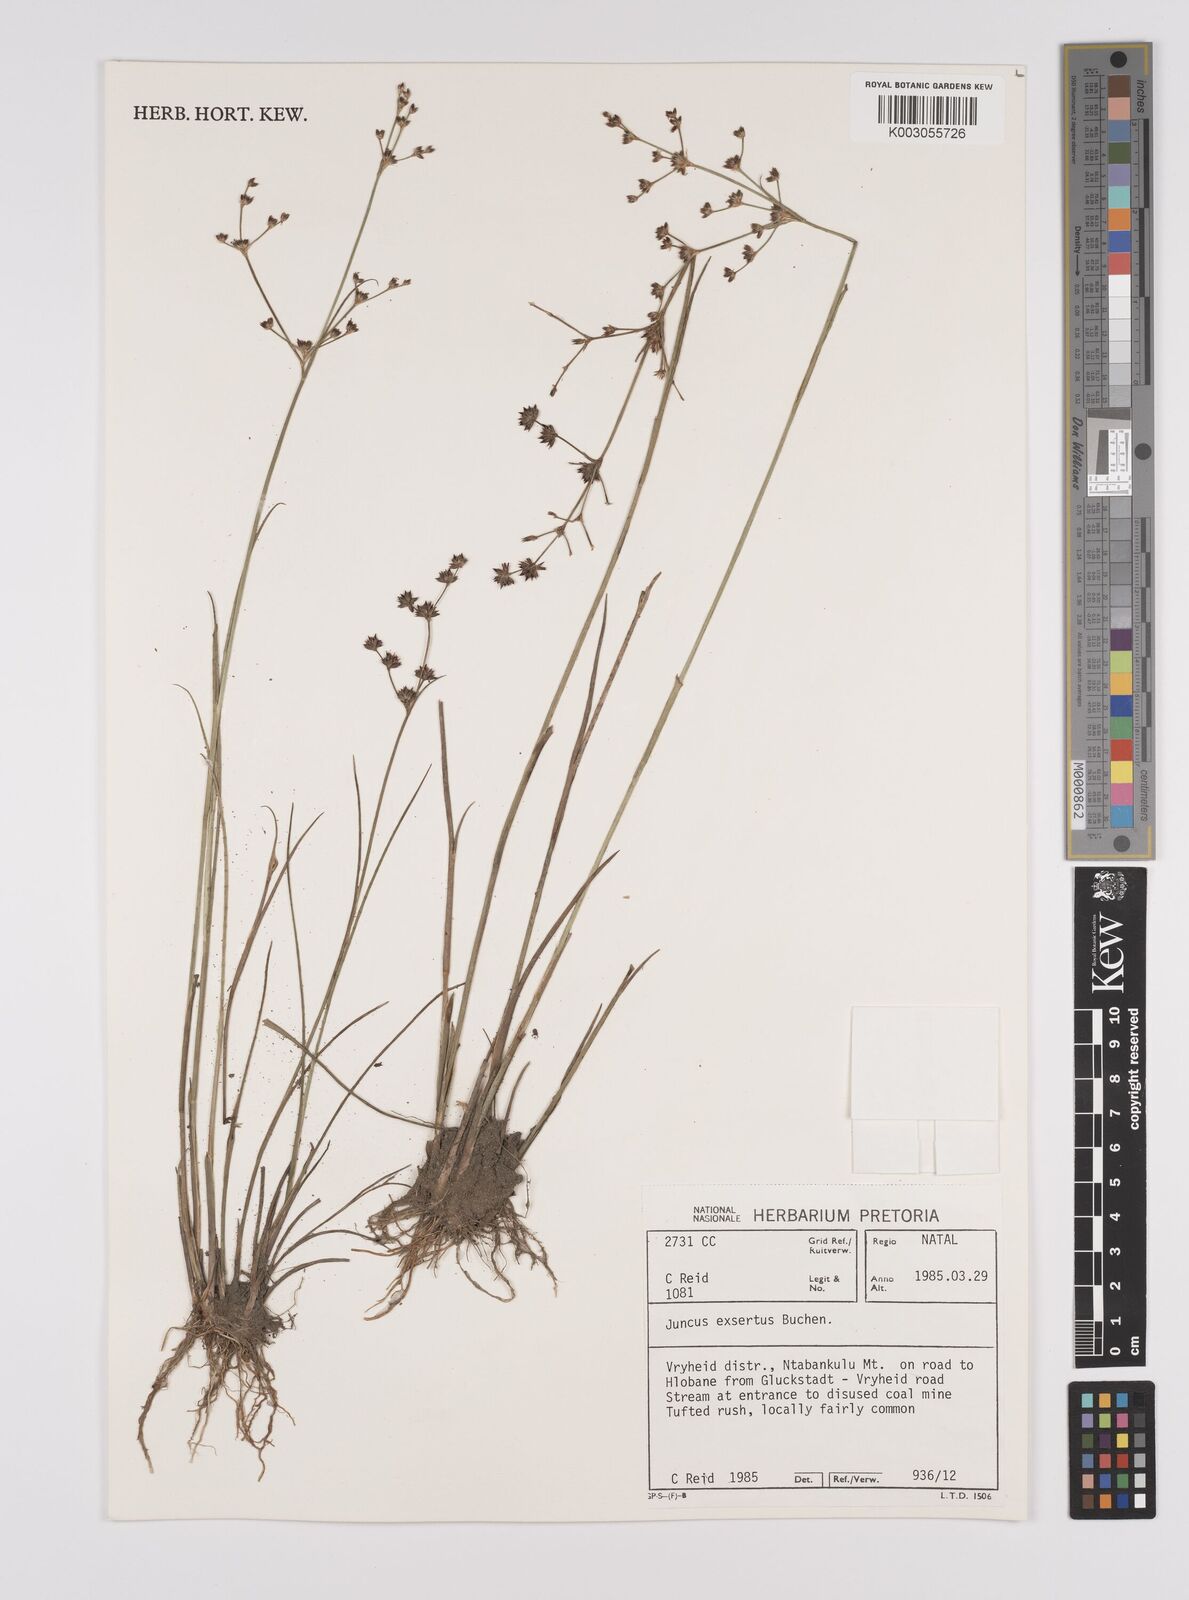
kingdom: Plantae
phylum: Tracheophyta
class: Liliopsida
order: Poales
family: Juncaceae
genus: Juncus
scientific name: Juncus exsertus
